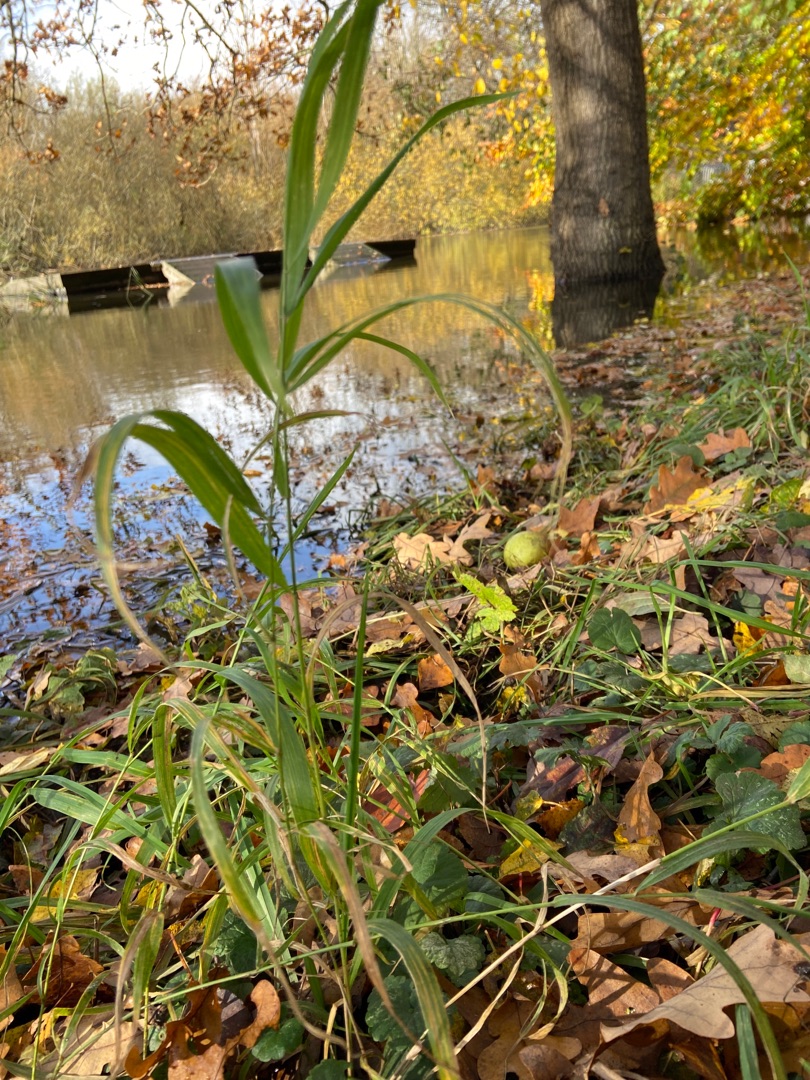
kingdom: Plantae
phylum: Tracheophyta
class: Liliopsida
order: Poales
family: Poaceae
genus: Phalaris
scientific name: Phalaris arundinacea
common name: Rørgræs
